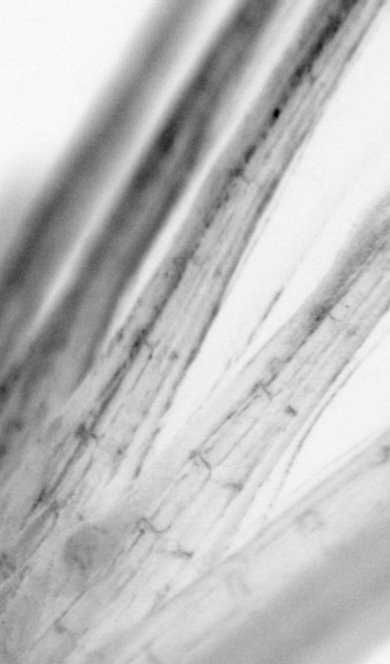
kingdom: Animalia
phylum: Chordata
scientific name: Chordata
